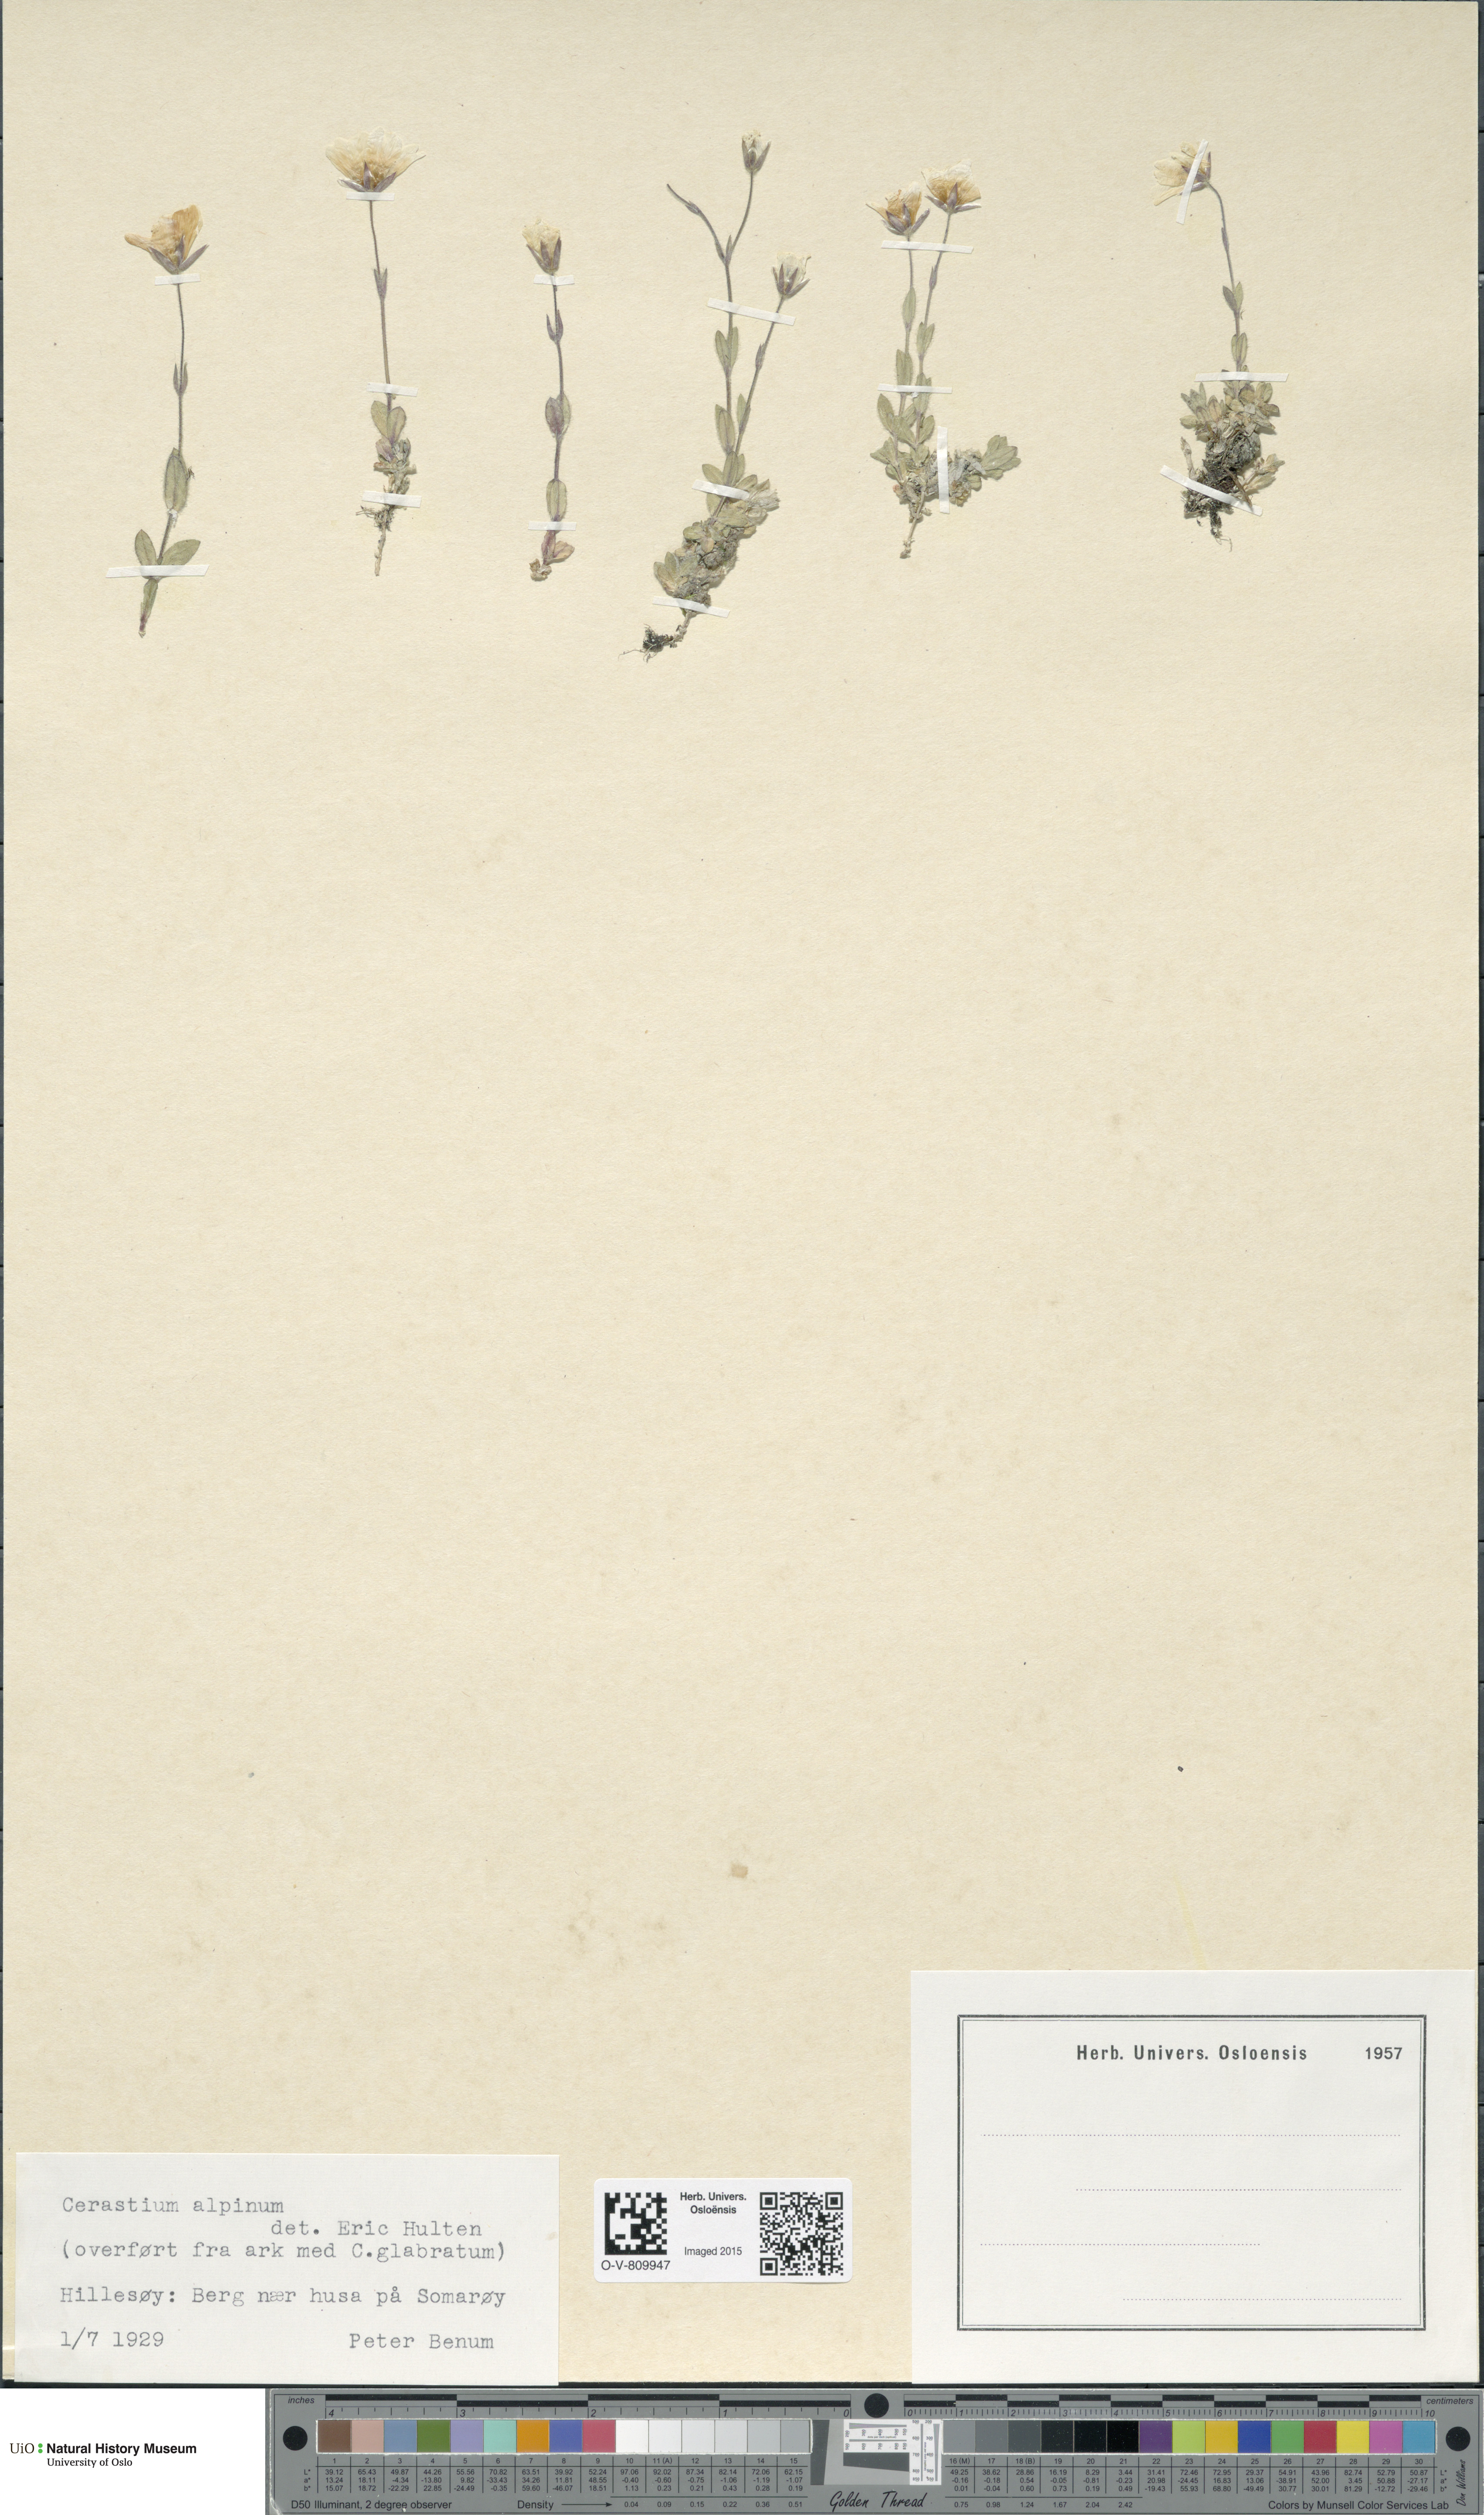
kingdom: Plantae
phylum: Tracheophyta
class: Magnoliopsida
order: Caryophyllales
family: Caryophyllaceae
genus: Cerastium
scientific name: Cerastium alpinum
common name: Alpine mouse-ear
